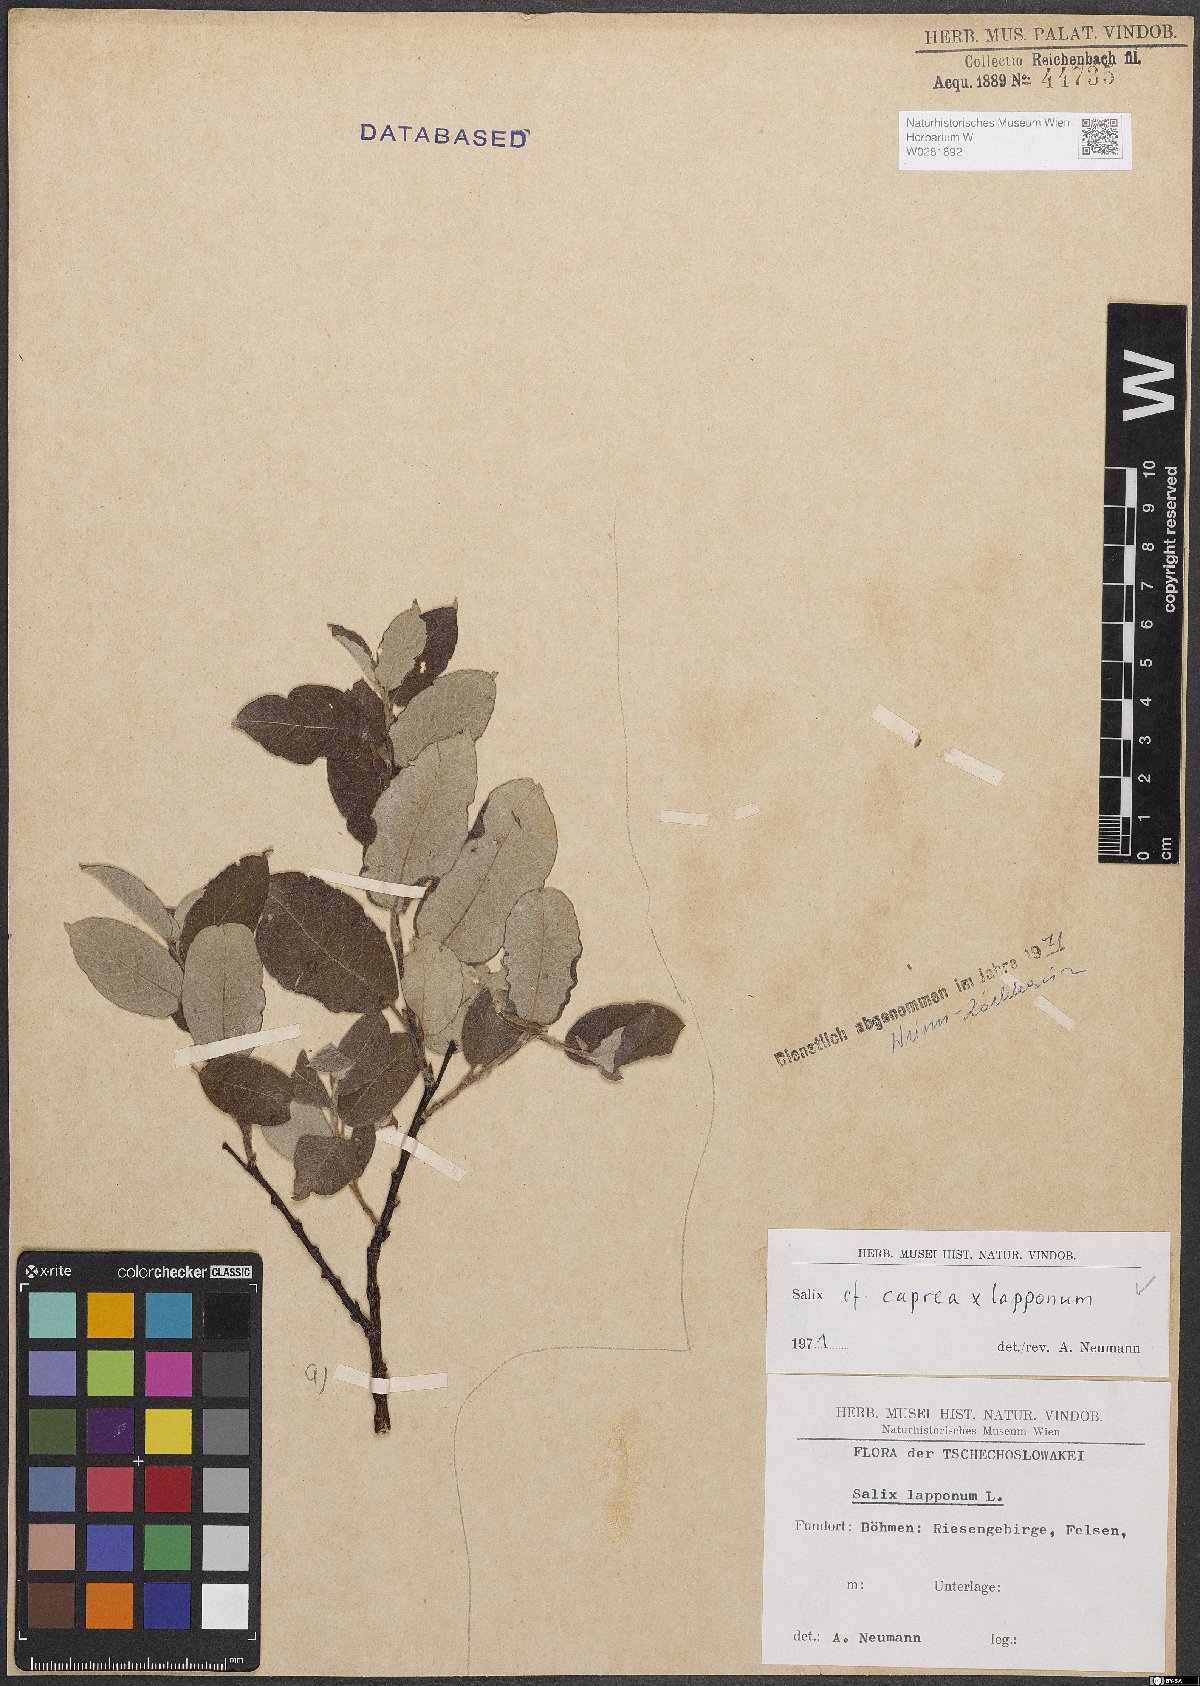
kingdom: Plantae
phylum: Tracheophyta
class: Magnoliopsida
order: Malpighiales
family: Salicaceae
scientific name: Salicaceae
